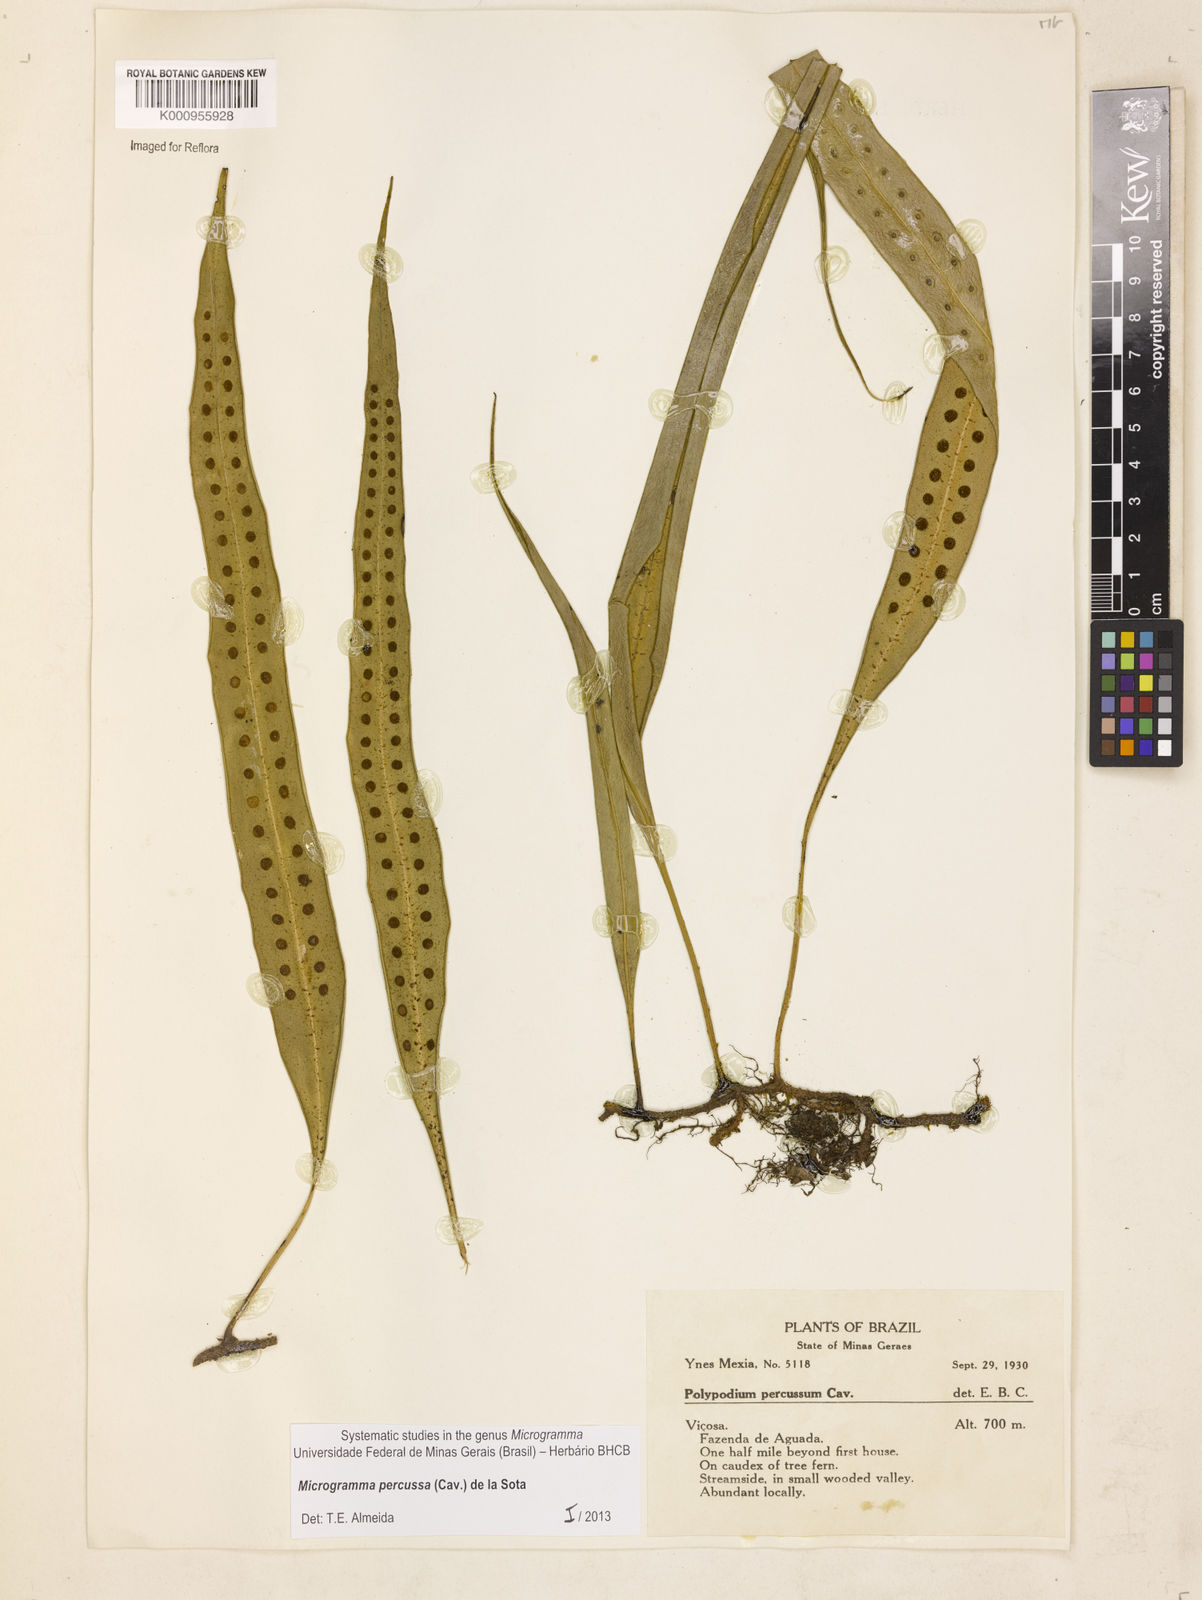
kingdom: Plantae
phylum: Tracheophyta
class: Polypodiopsida
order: Polypodiales
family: Polypodiaceae
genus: Microgramma
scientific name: Microgramma percussa
